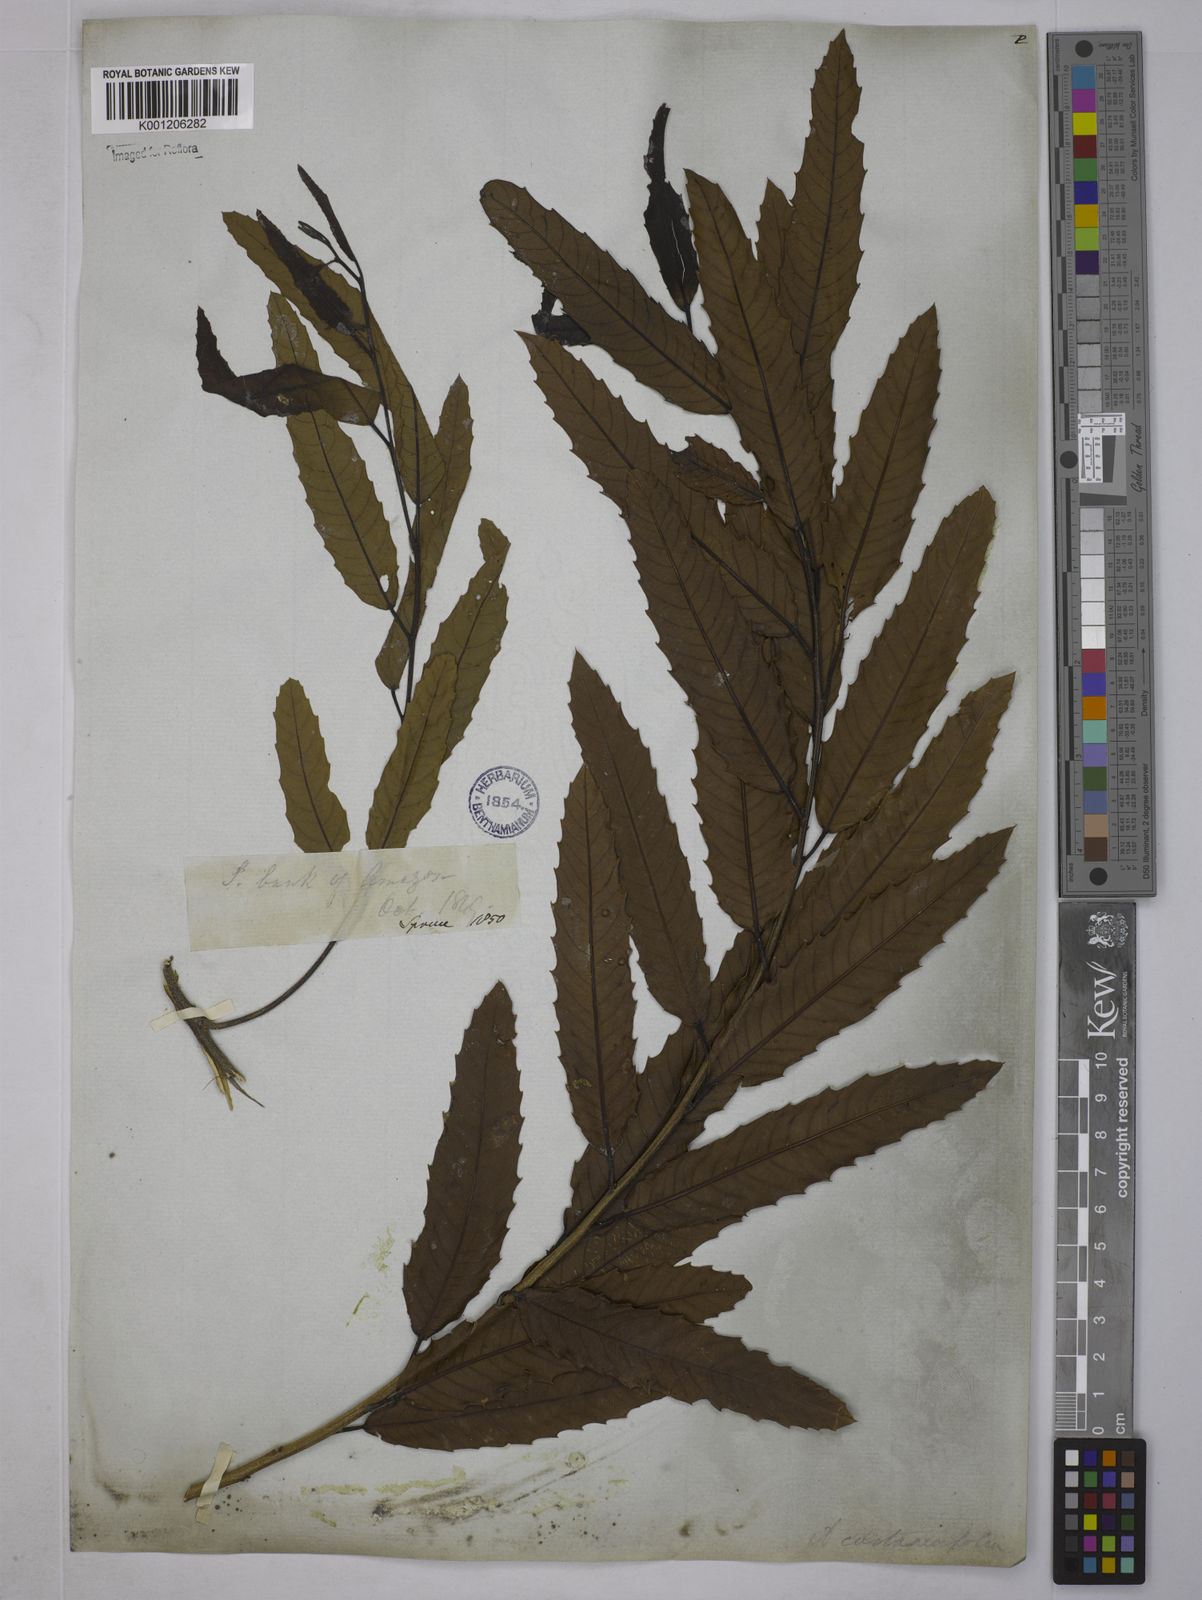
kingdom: Plantae
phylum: Tracheophyta
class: Magnoliopsida
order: Malpighiales
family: Euphorbiaceae
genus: Alchornea
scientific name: Alchornea castaneifolia
